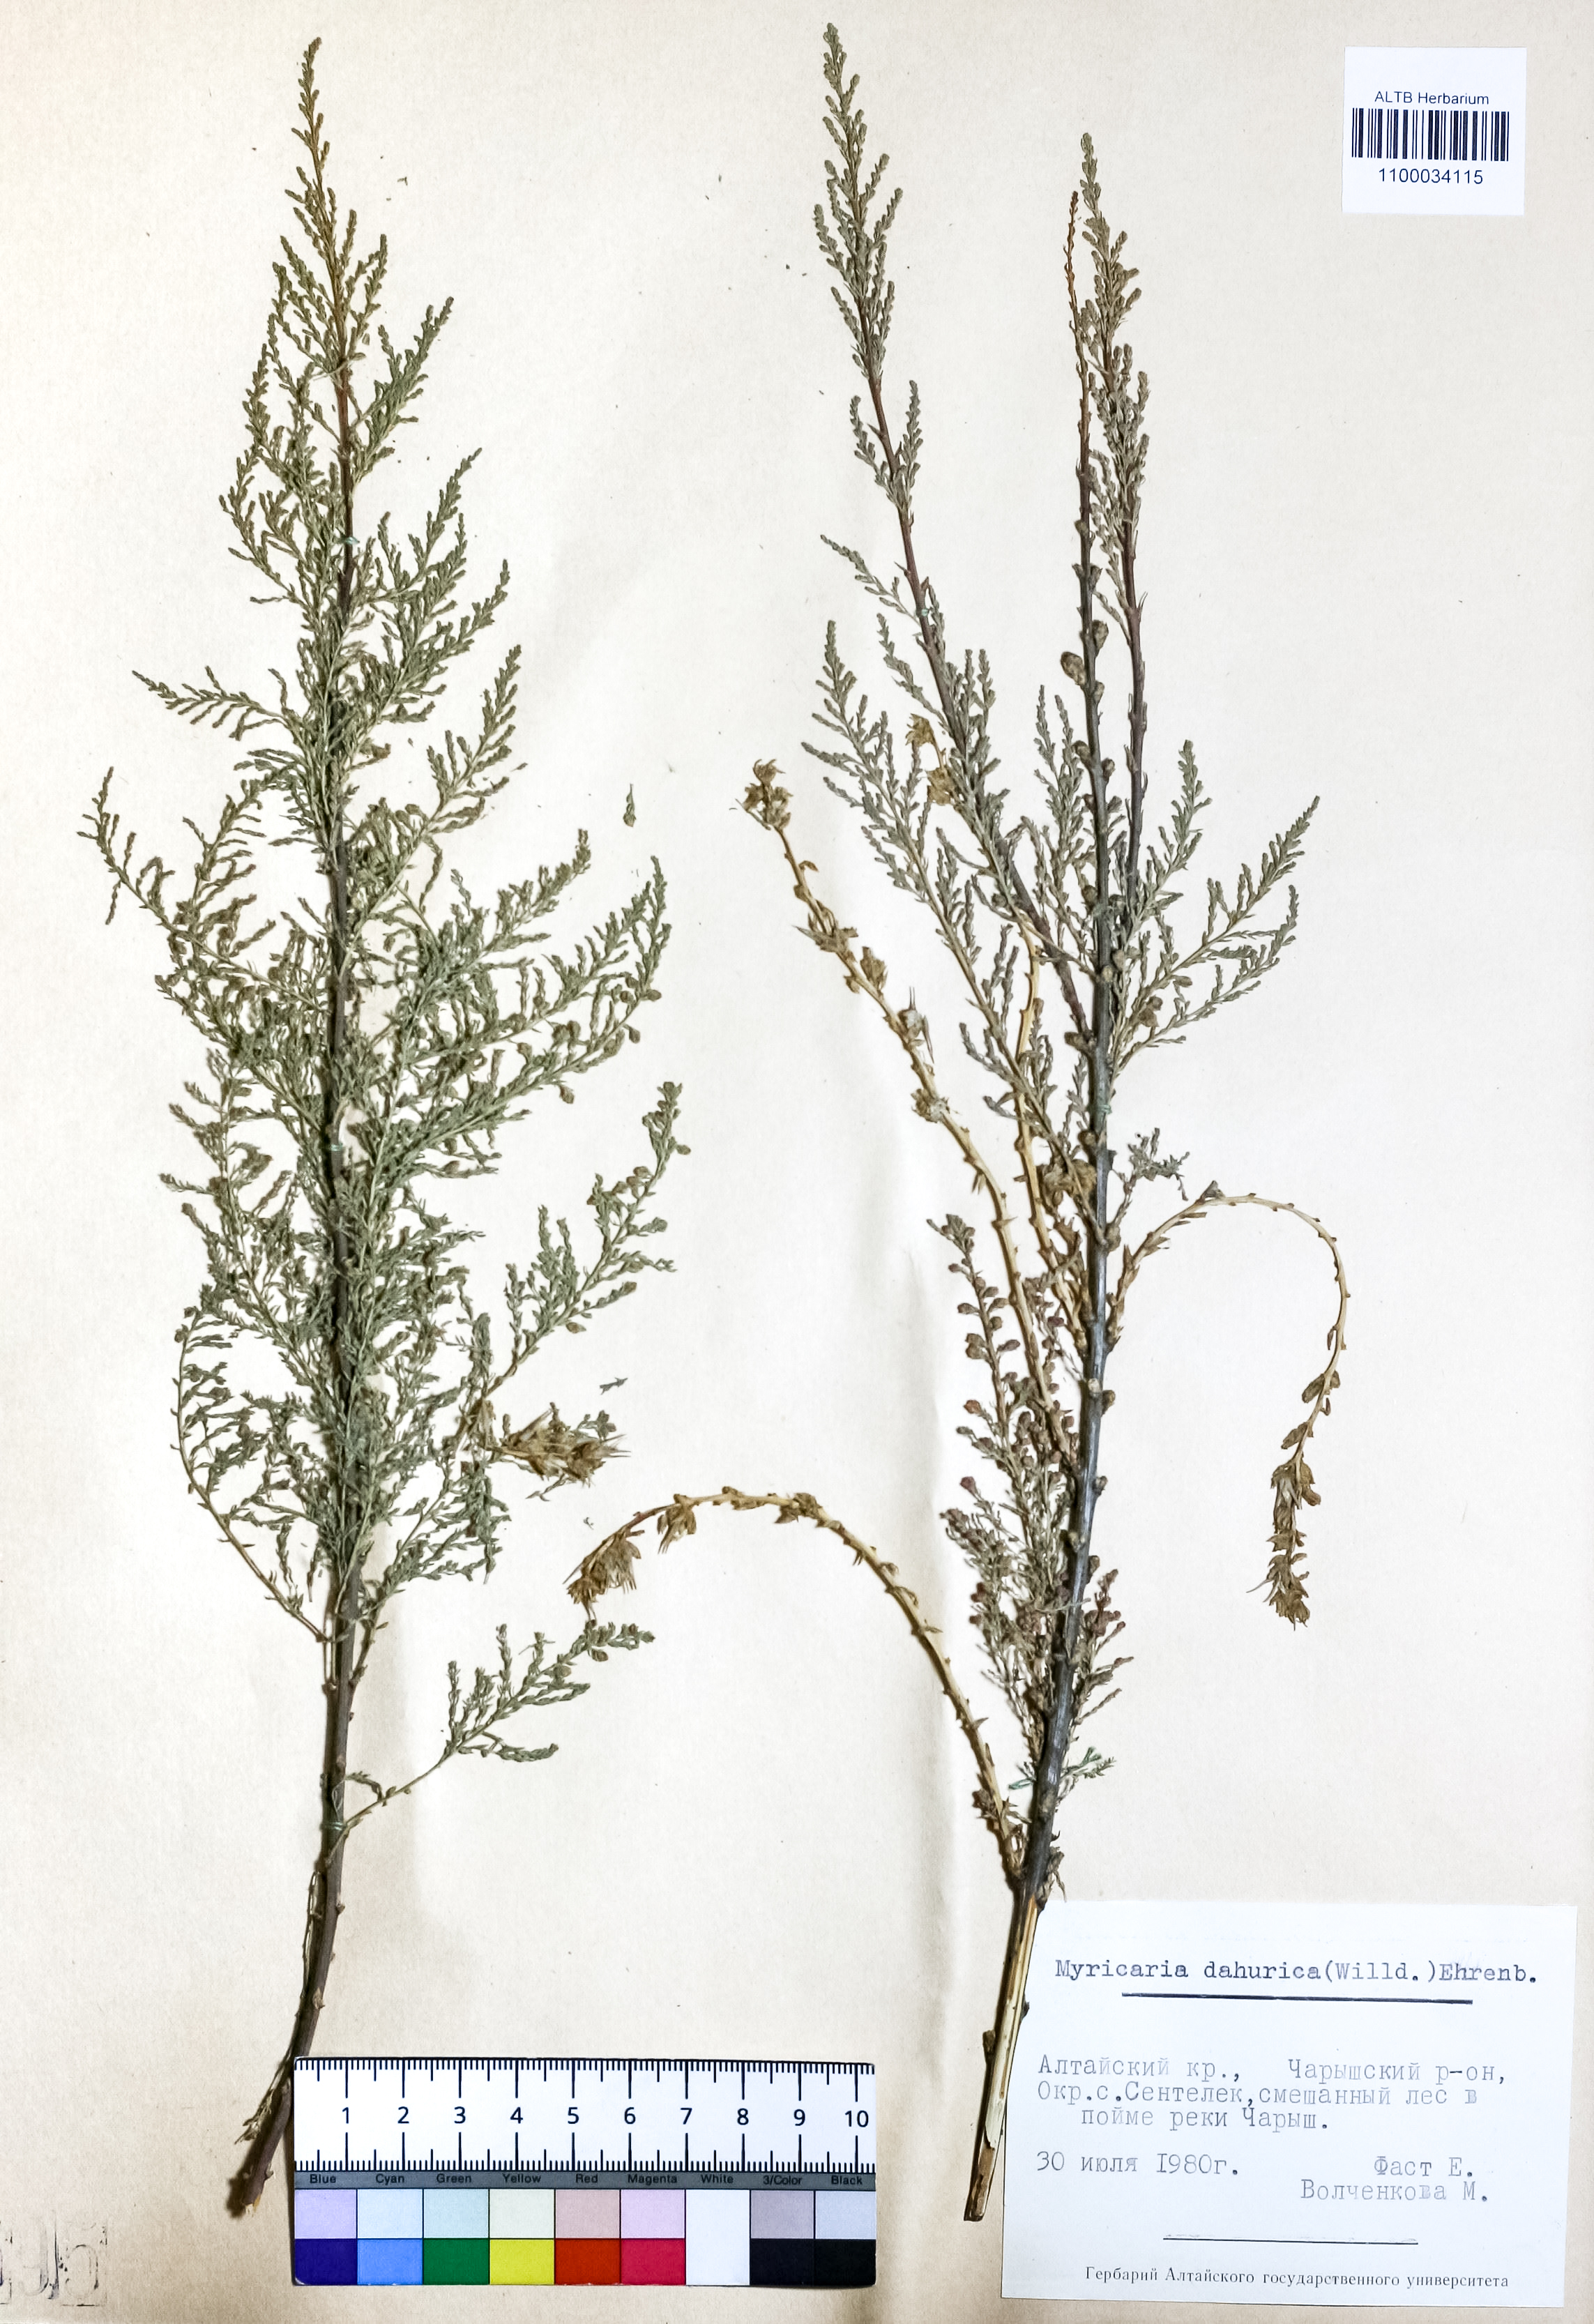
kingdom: Plantae
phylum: Tracheophyta
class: Magnoliopsida
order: Caryophyllales
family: Tamaricaceae
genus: Myricaria
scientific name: Myricaria davurica
